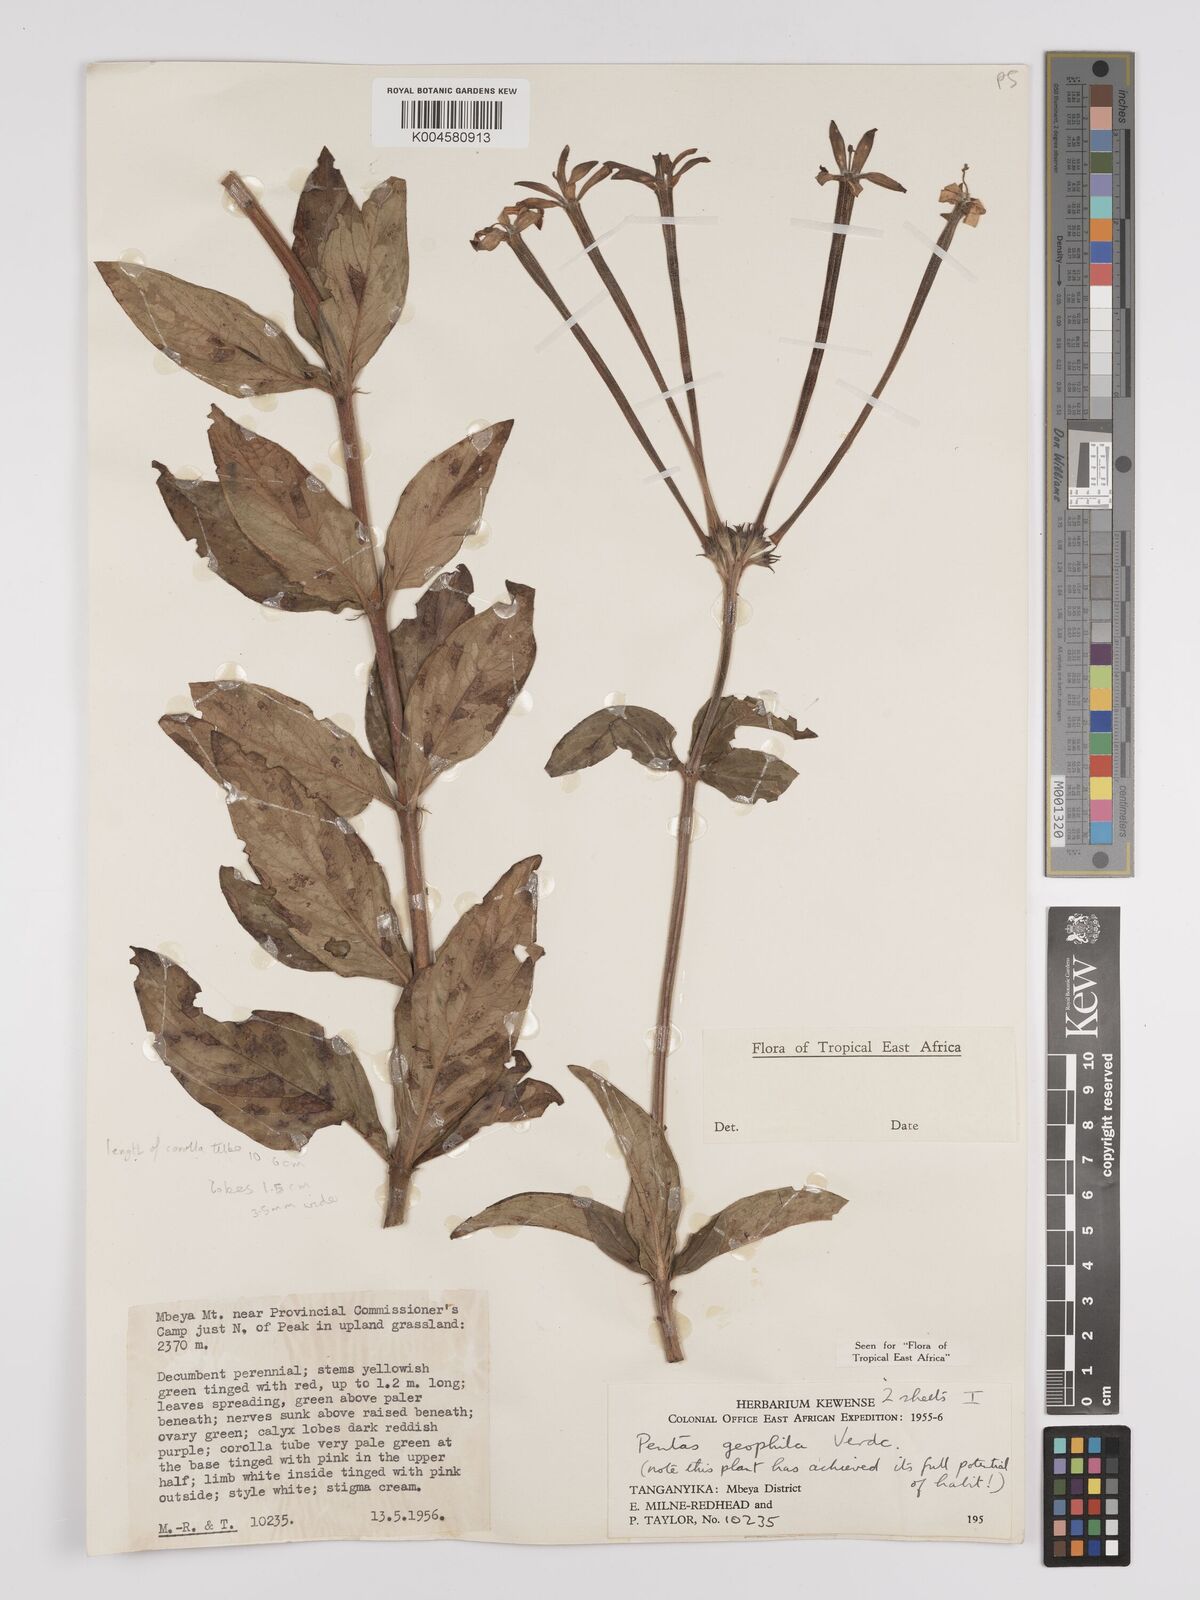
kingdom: Plantae
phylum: Tracheophyta
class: Magnoliopsida
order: Gentianales
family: Rubiaceae
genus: Dolichopentas
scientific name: Dolichopentas lindenioides
